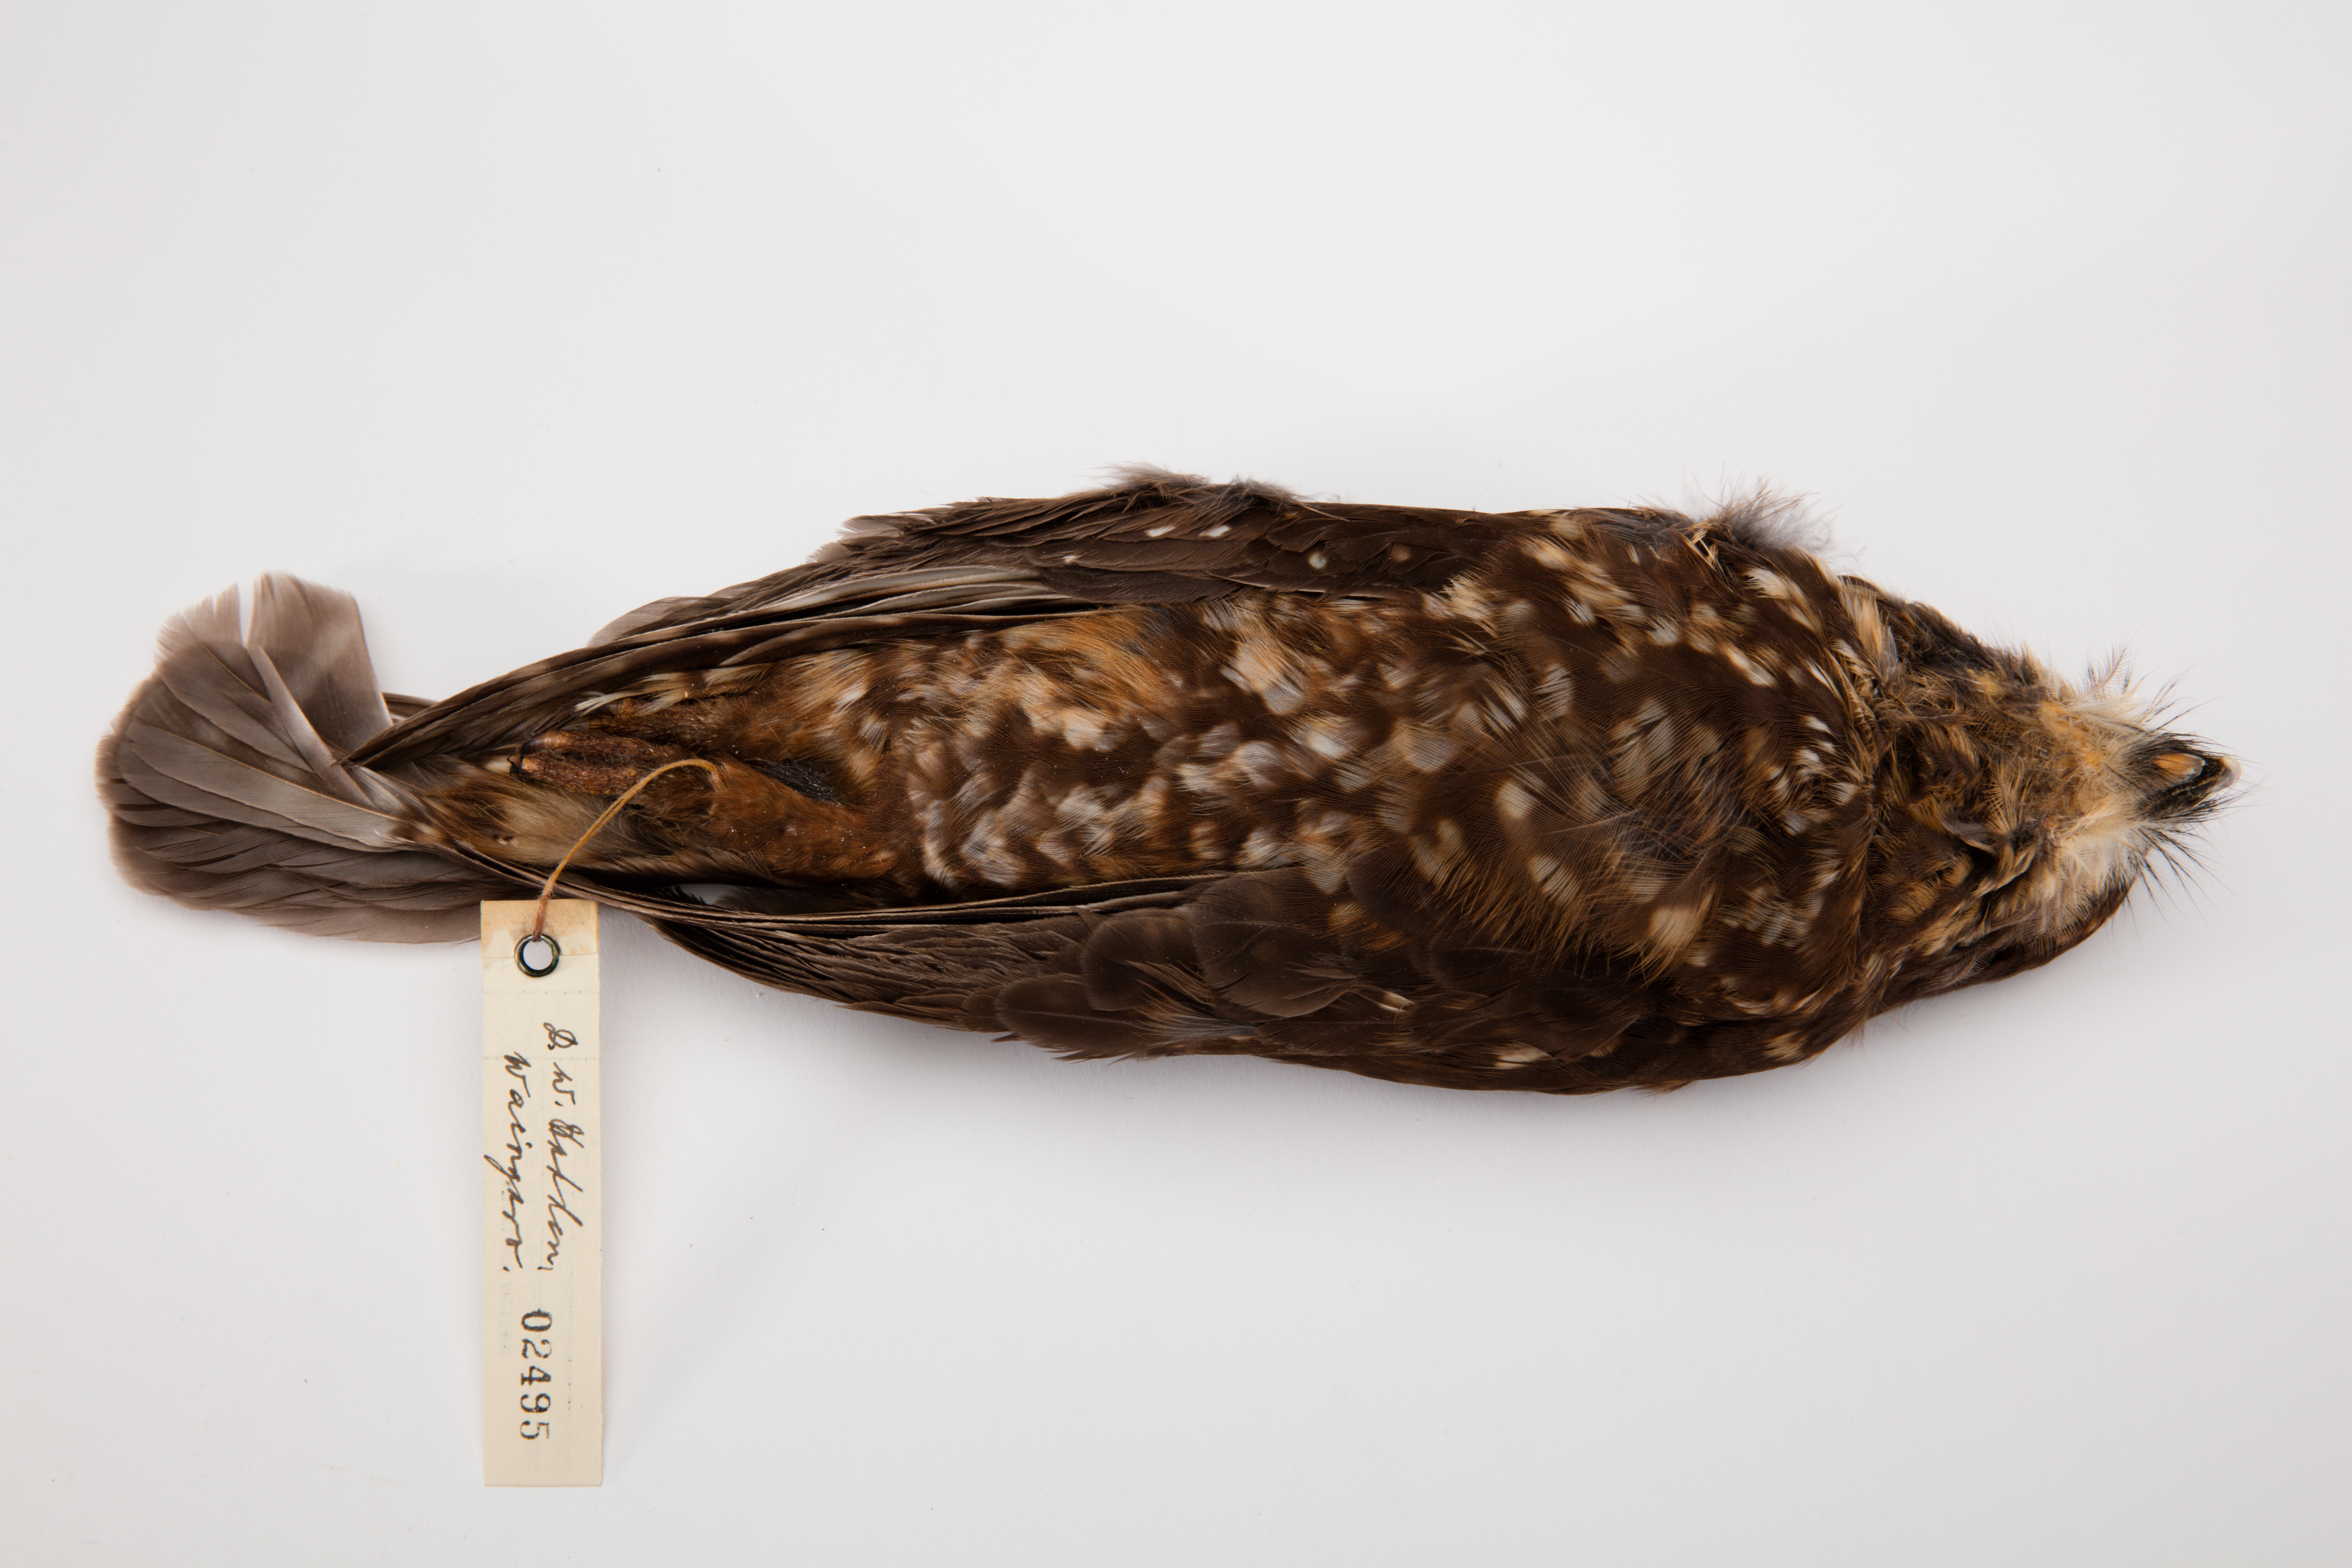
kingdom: Animalia
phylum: Chordata
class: Aves
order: Strigiformes
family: Strigidae
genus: Ninox
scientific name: Ninox novaeseelandiae
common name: Morepork
